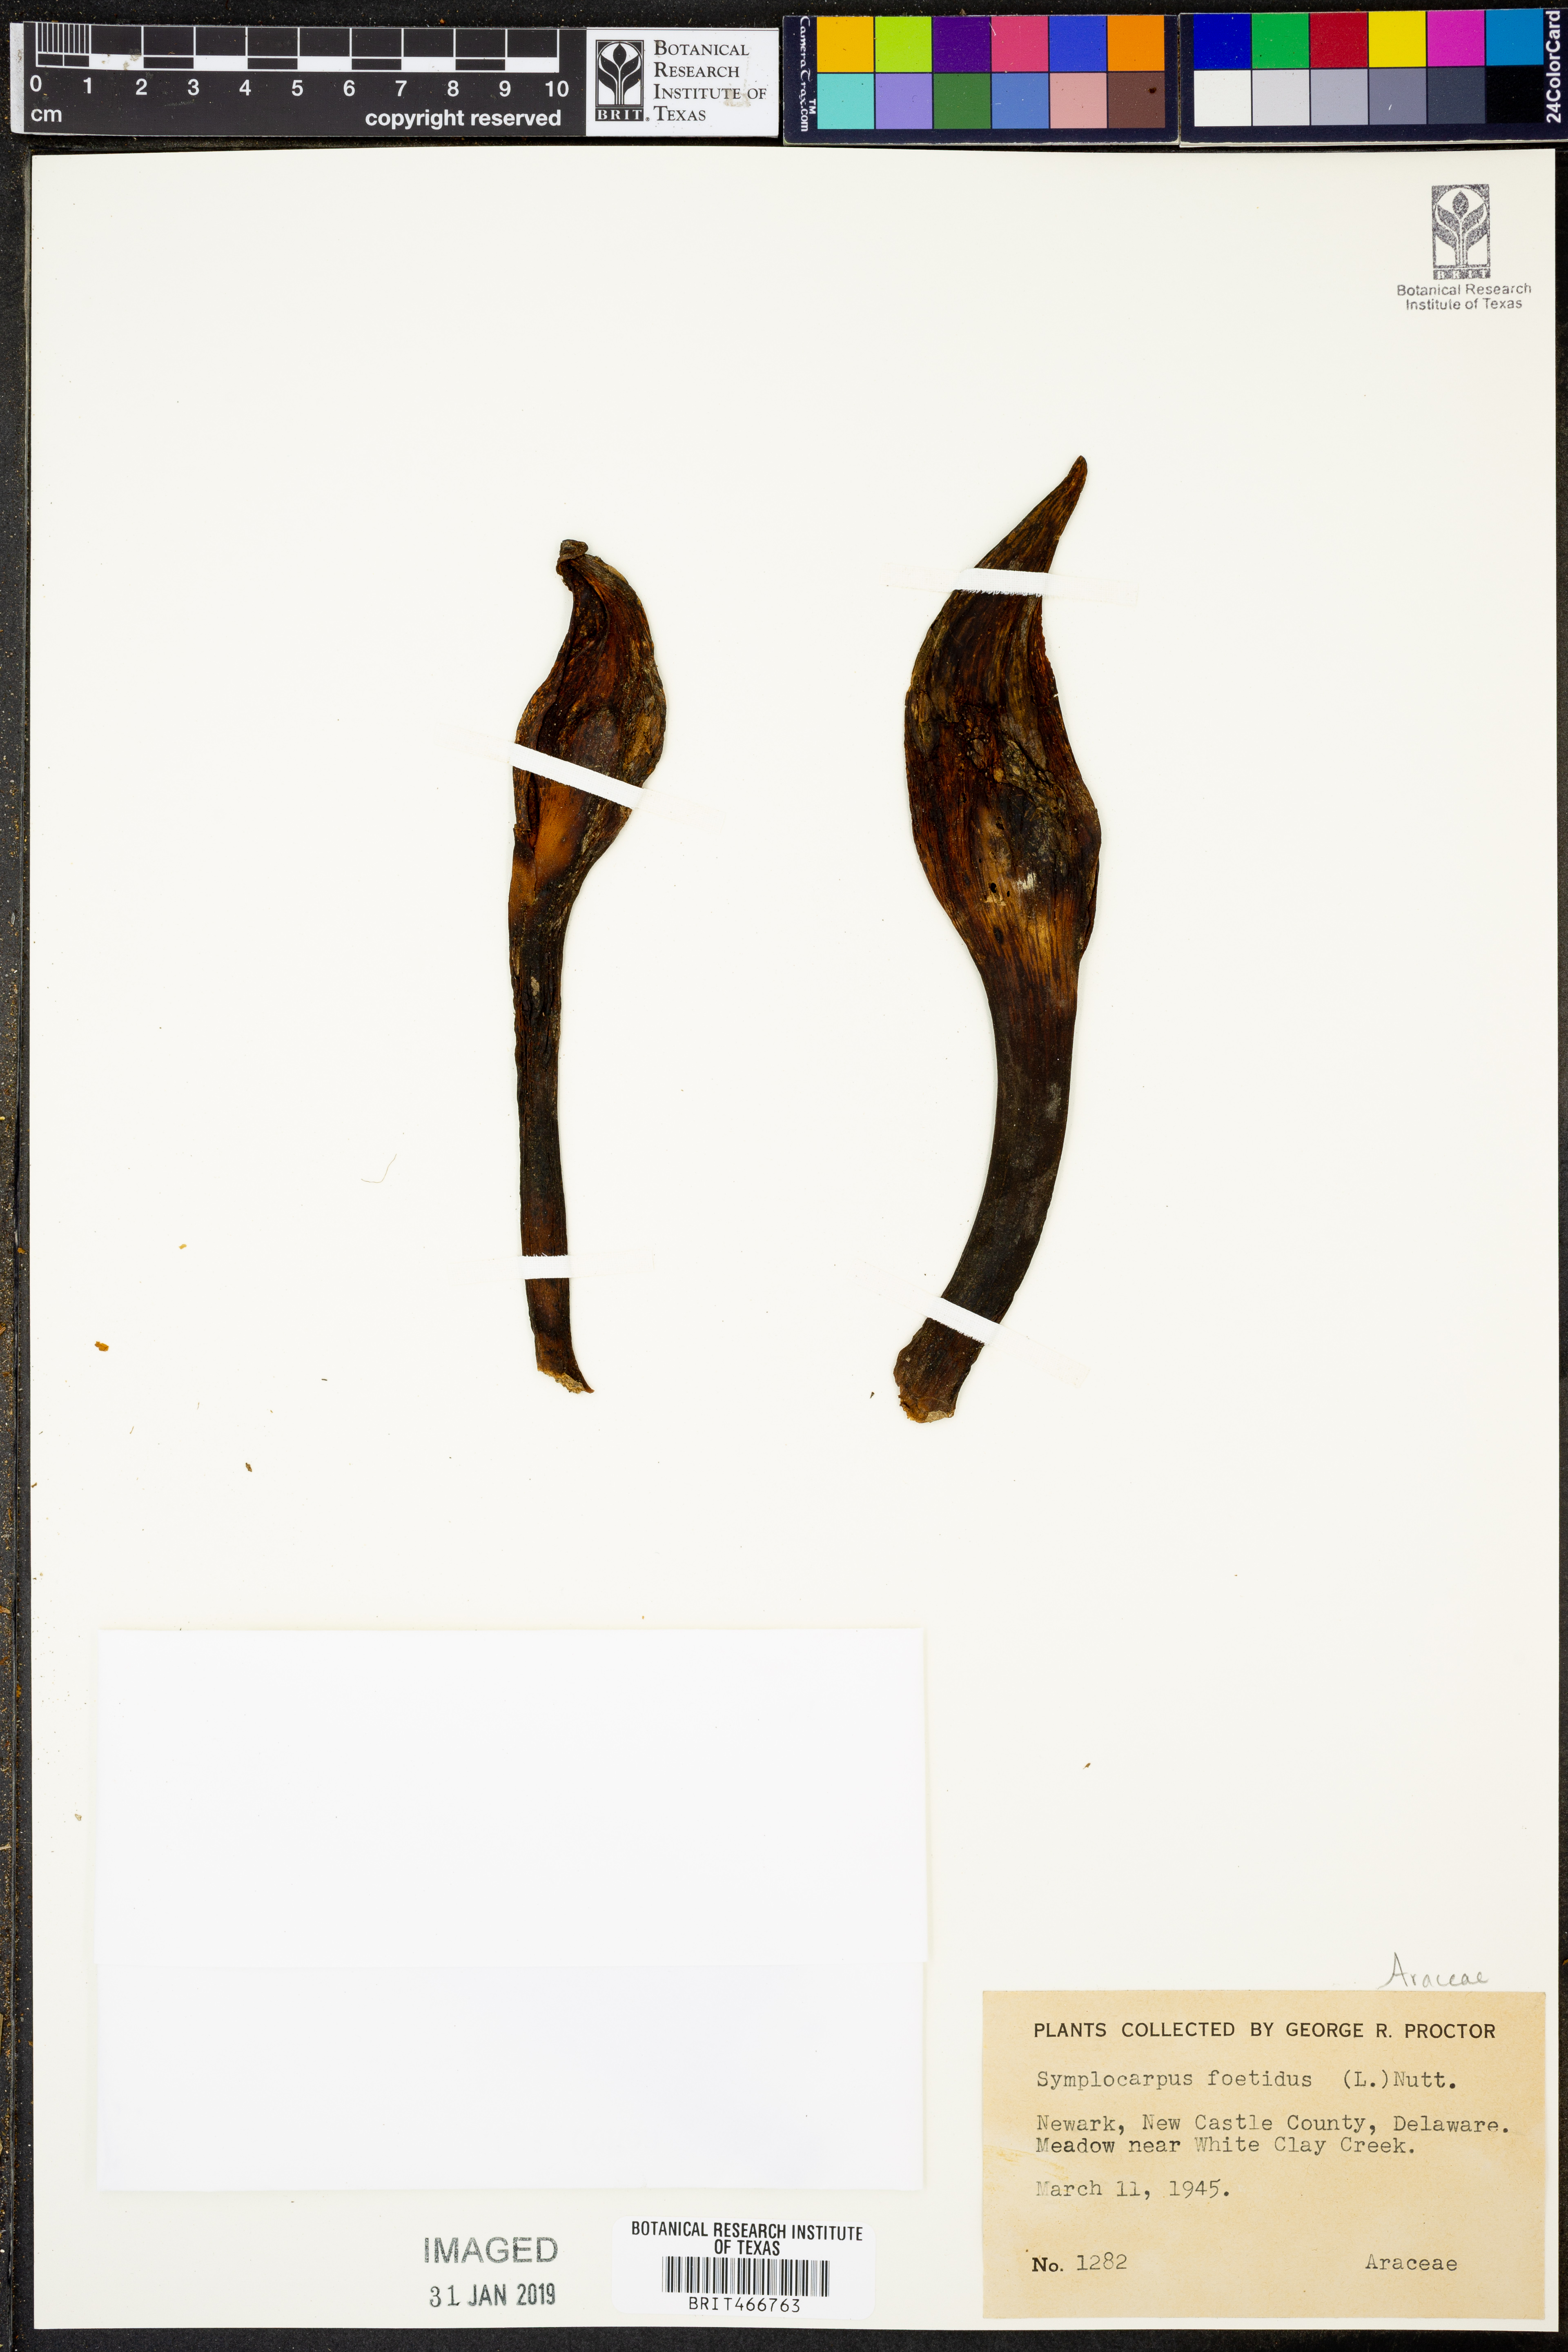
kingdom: Plantae
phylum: Tracheophyta
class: Liliopsida
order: Alismatales
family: Araceae
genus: Symplocarpus
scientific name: Symplocarpus foetidus
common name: Eastern skunk cabbage
